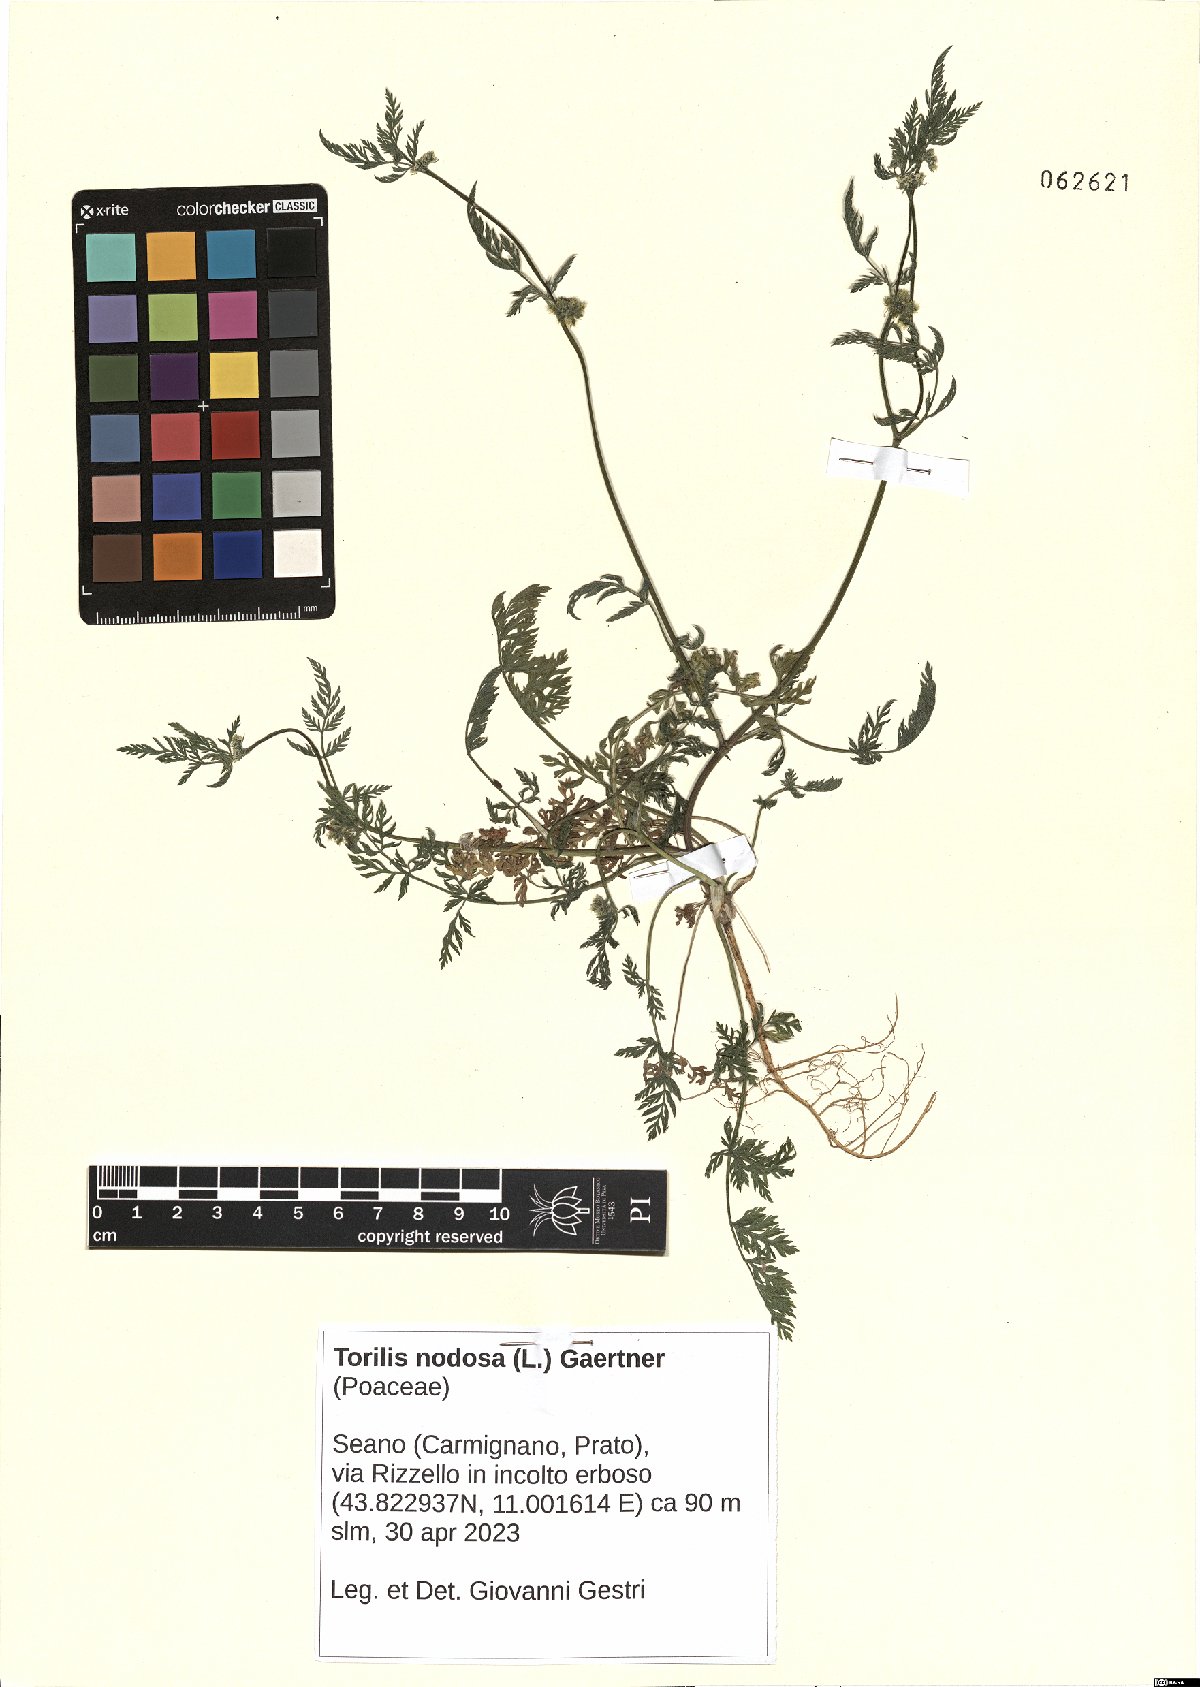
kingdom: Plantae
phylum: Tracheophyta
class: Magnoliopsida
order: Apiales
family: Apiaceae
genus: Torilis
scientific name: Torilis nodosa
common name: Knotted hedge-parsley
